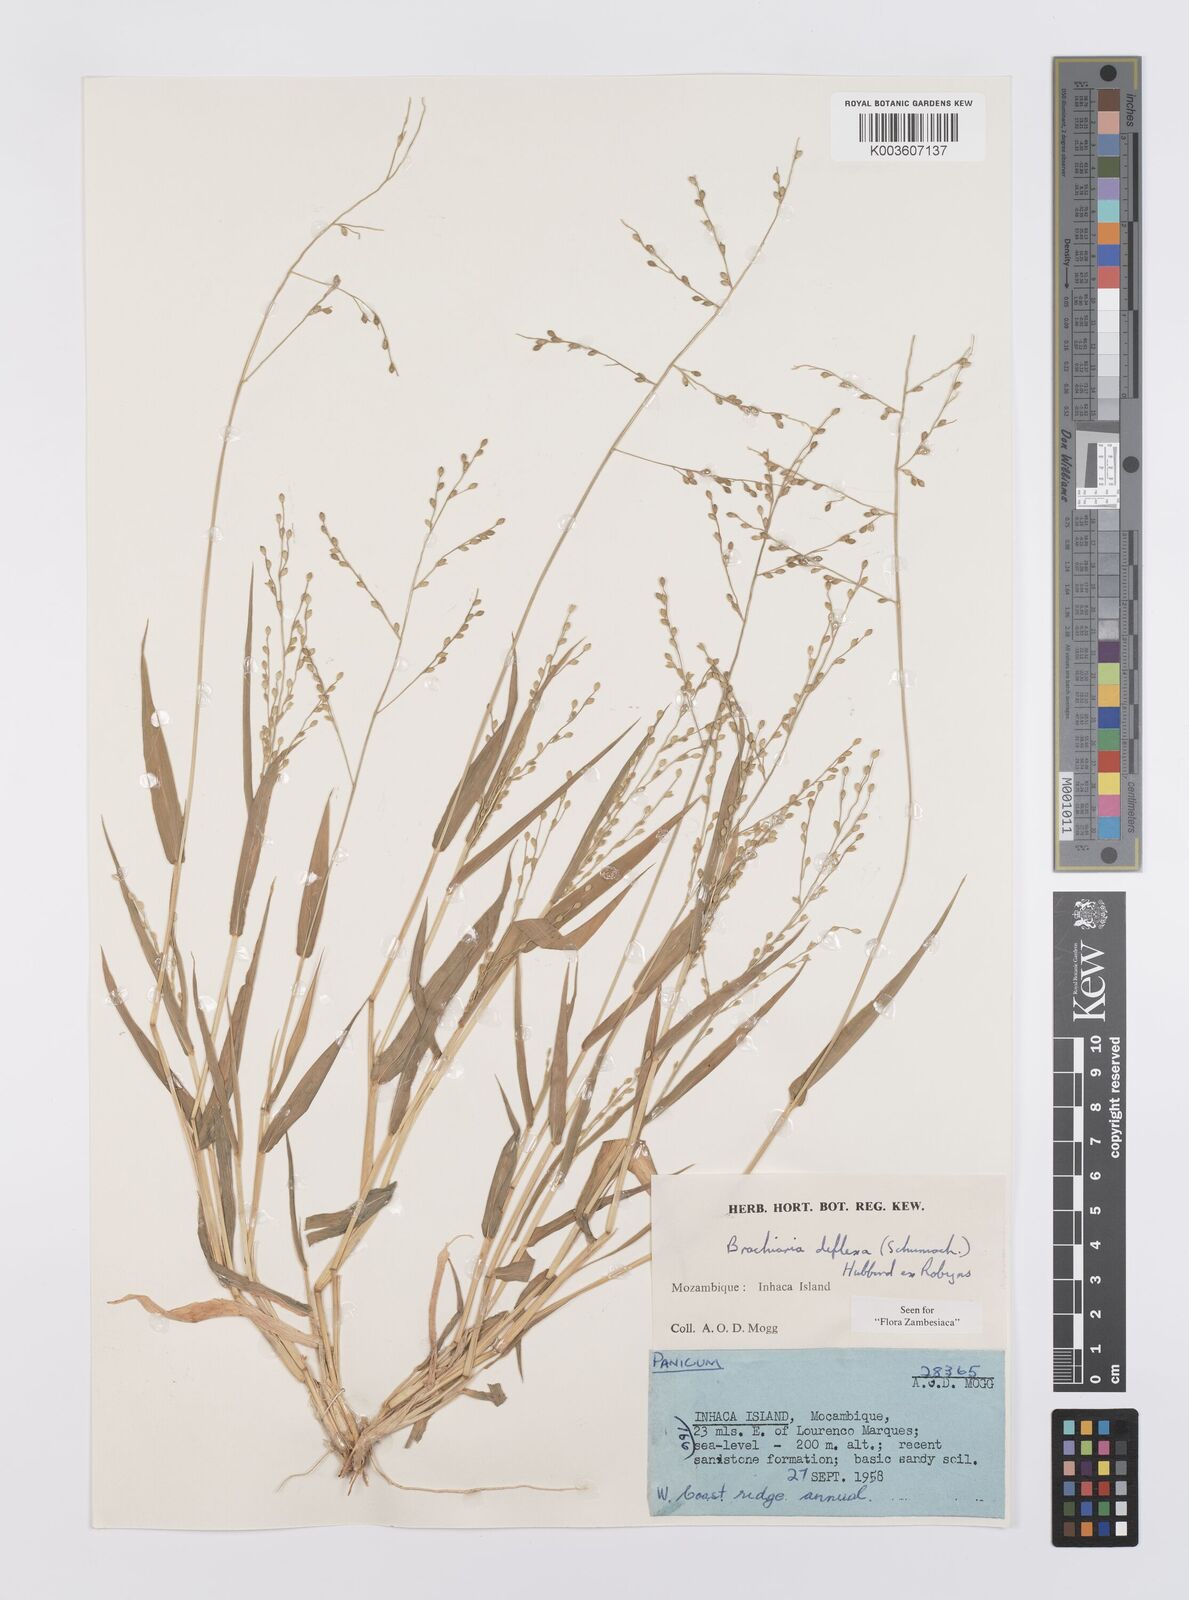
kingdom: Plantae
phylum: Tracheophyta
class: Liliopsida
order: Poales
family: Poaceae
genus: Urochloa
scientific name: Urochloa deflexa
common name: Guinea millet
